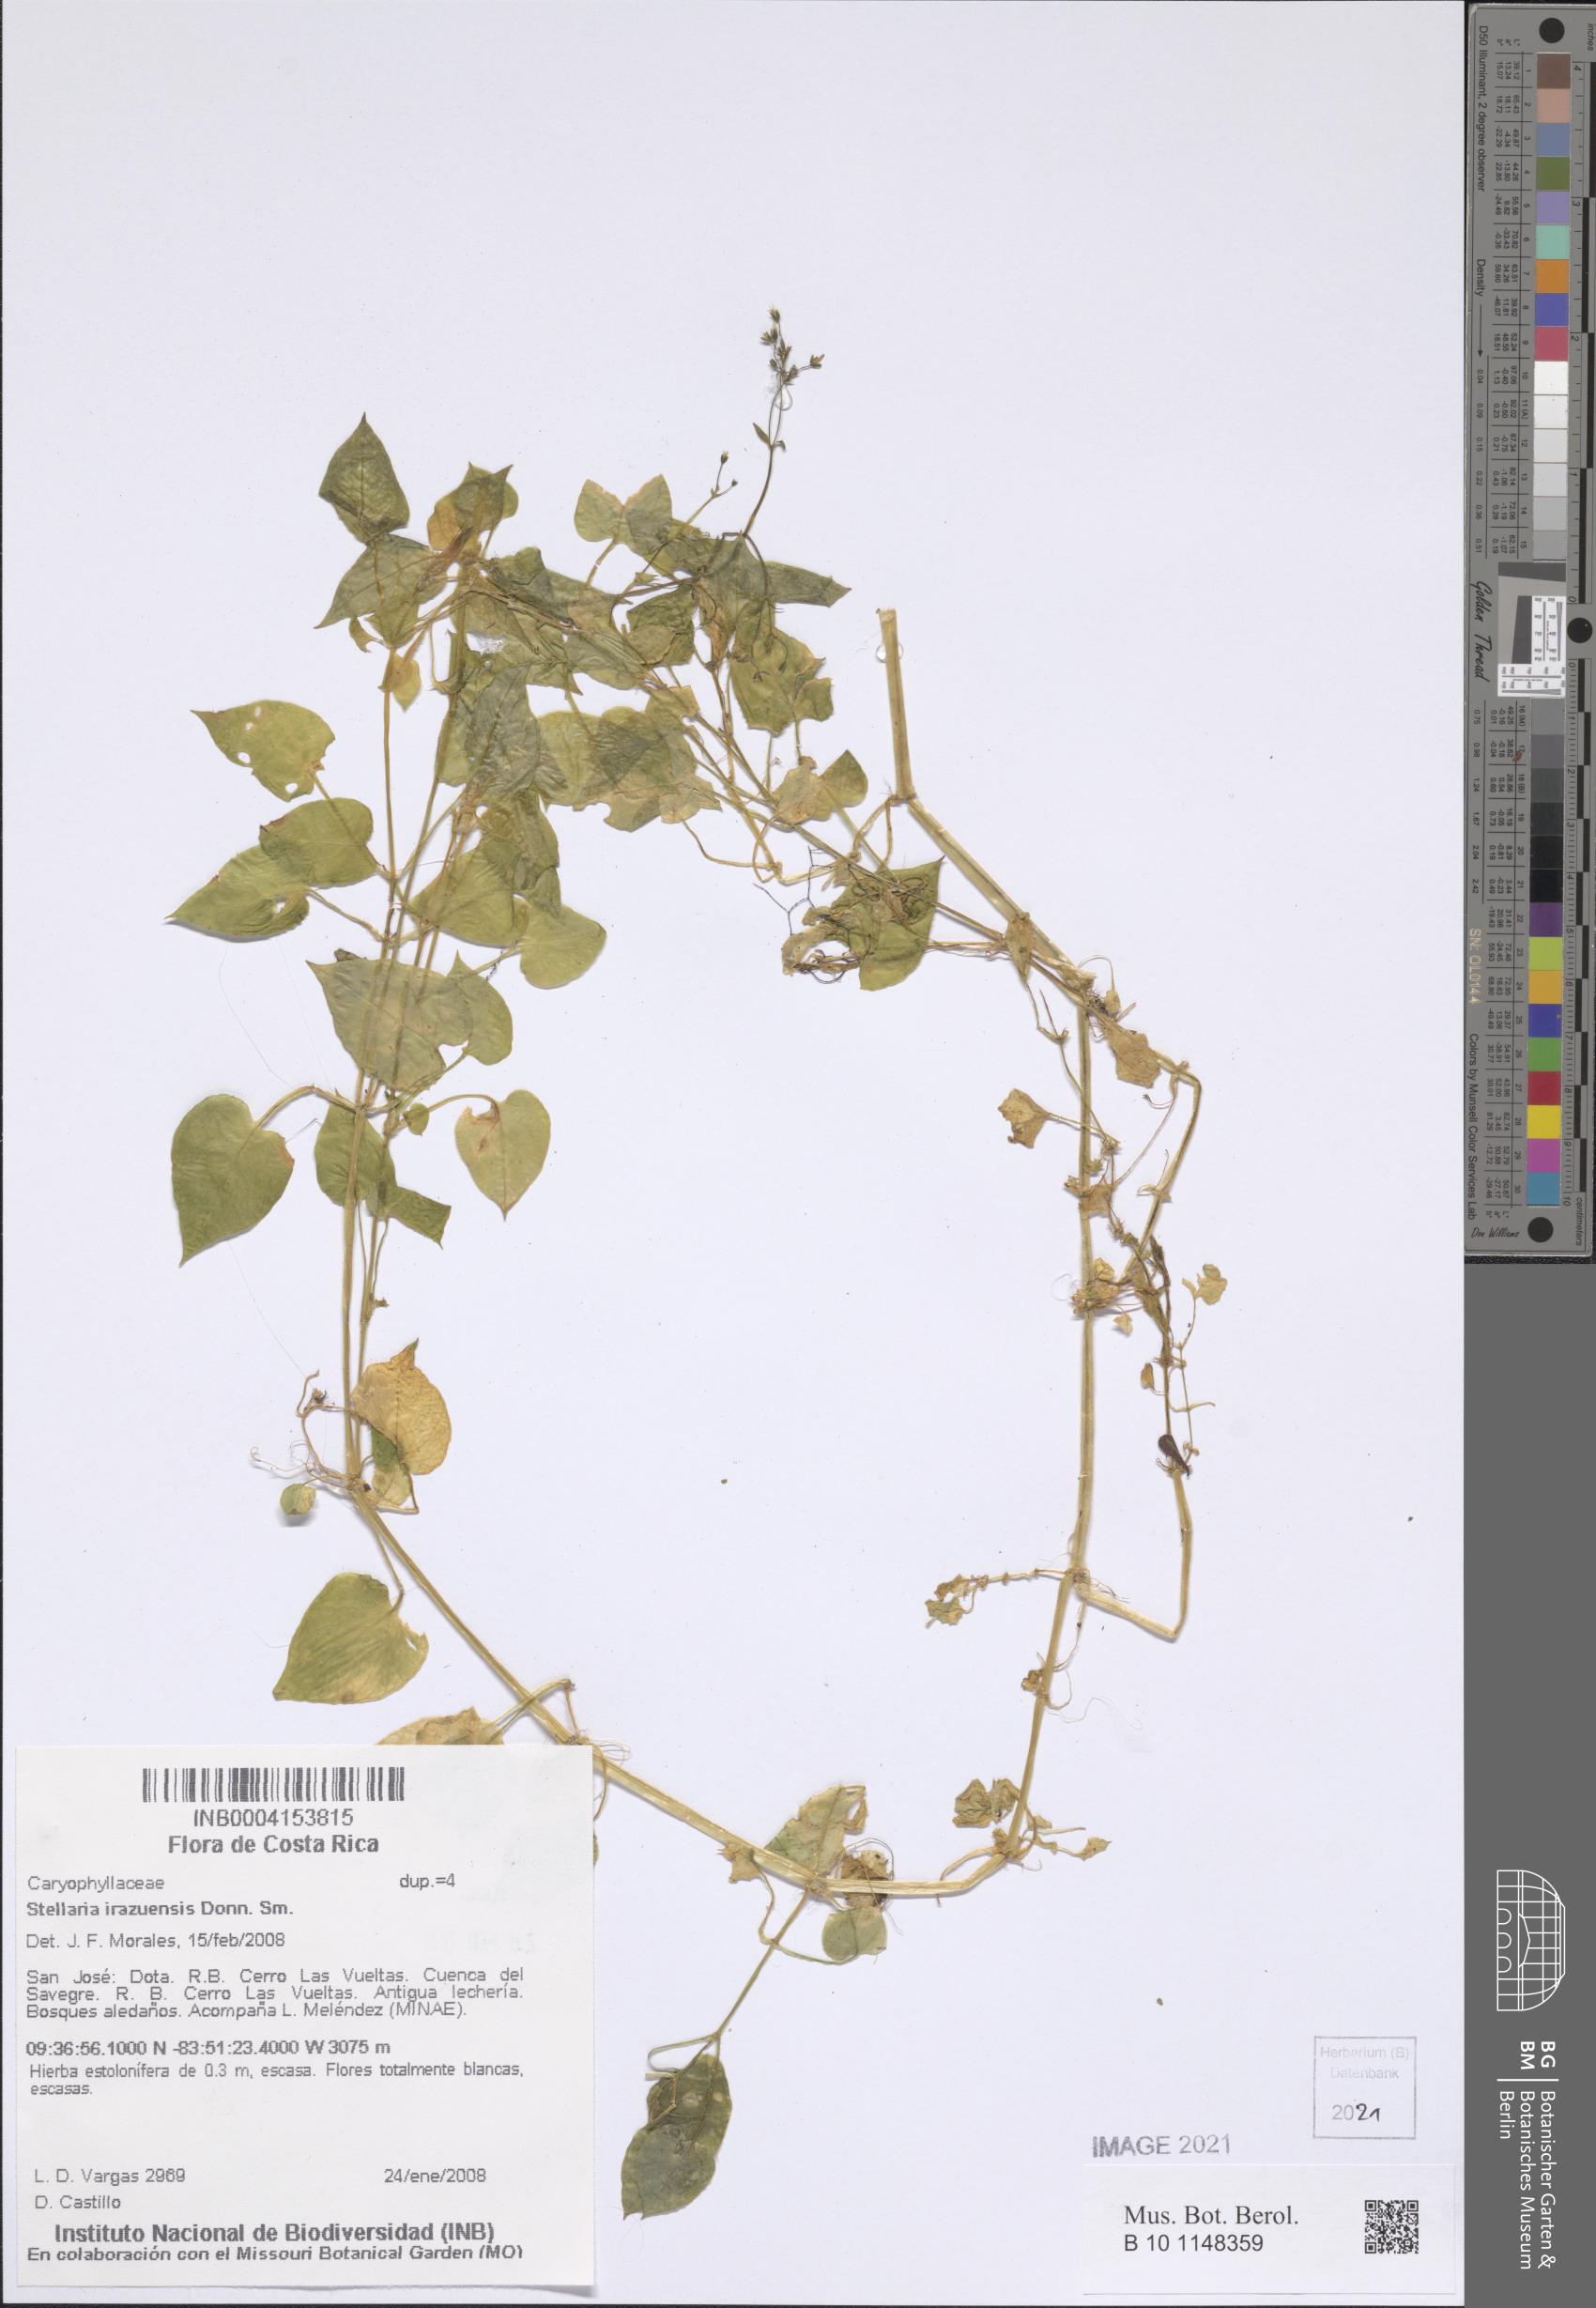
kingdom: Plantae
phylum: Tracheophyta
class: Magnoliopsida
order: Caryophyllales
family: Caryophyllaceae
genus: Stellaria
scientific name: Stellaria irazuensis
